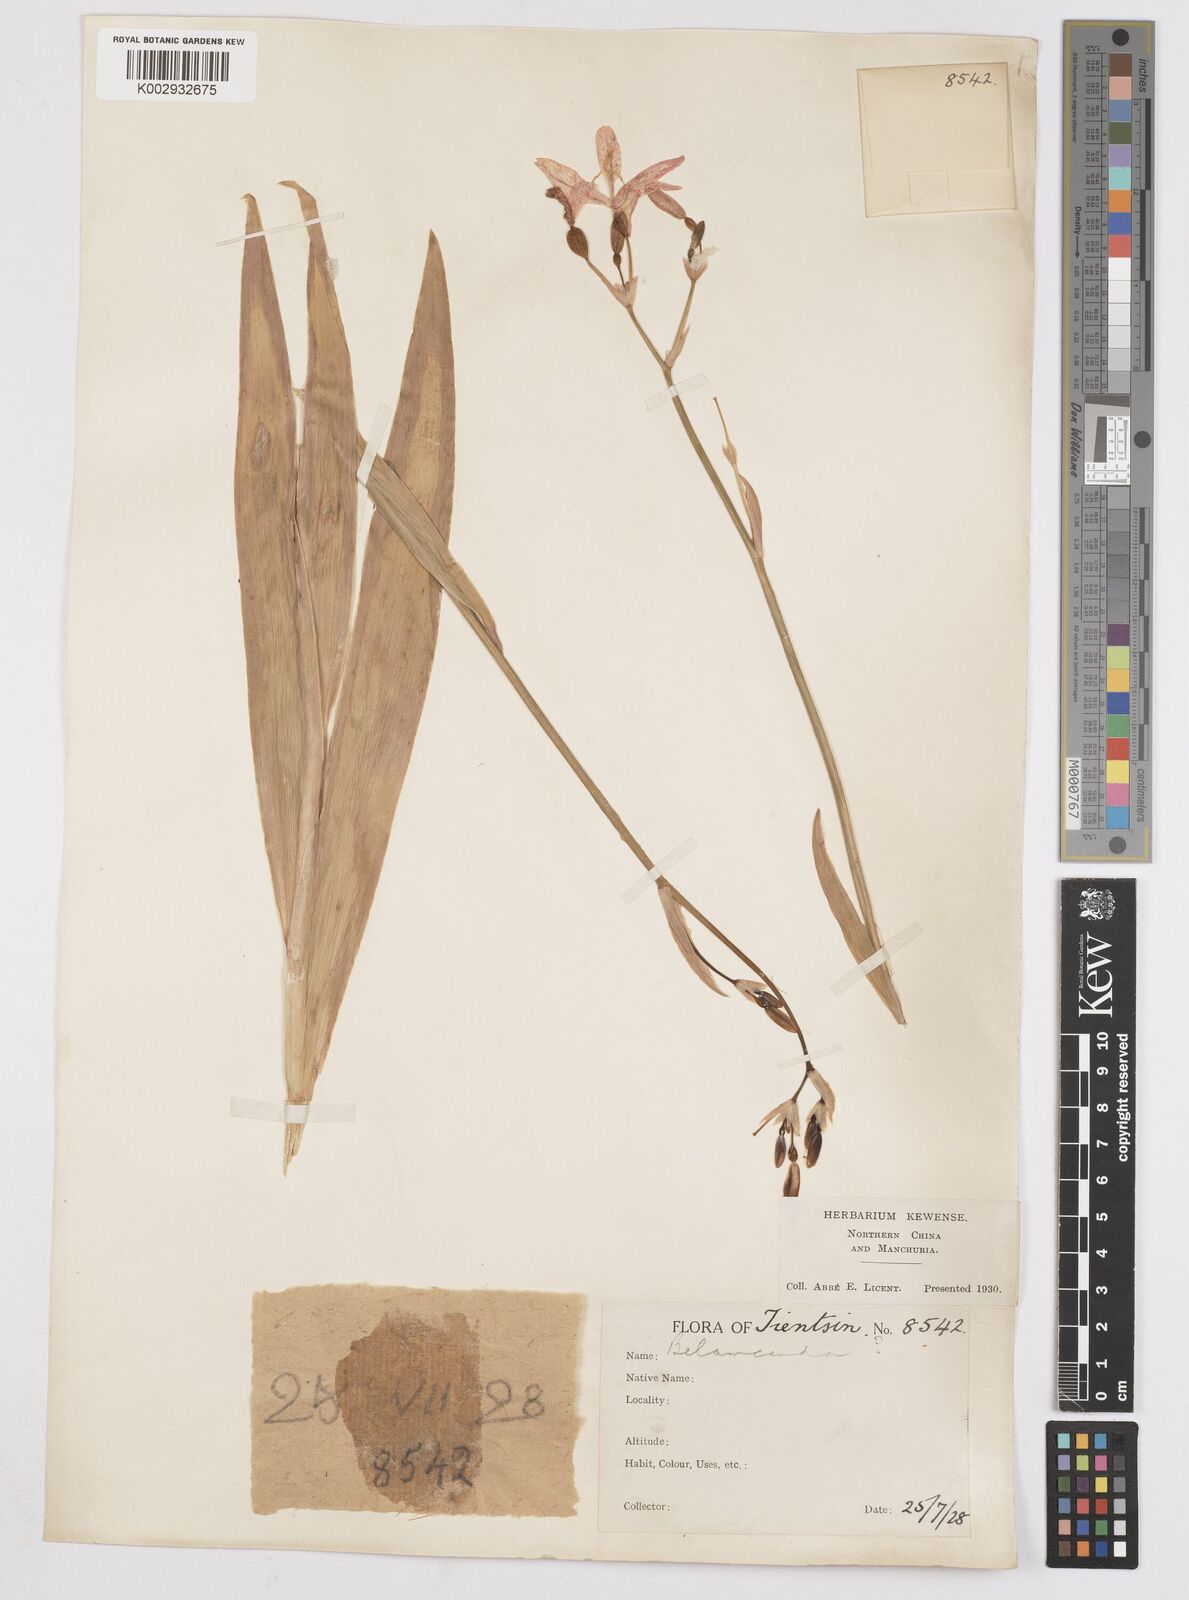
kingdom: Plantae
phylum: Tracheophyta
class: Liliopsida
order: Asparagales
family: Iridaceae
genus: Iris
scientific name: Iris
